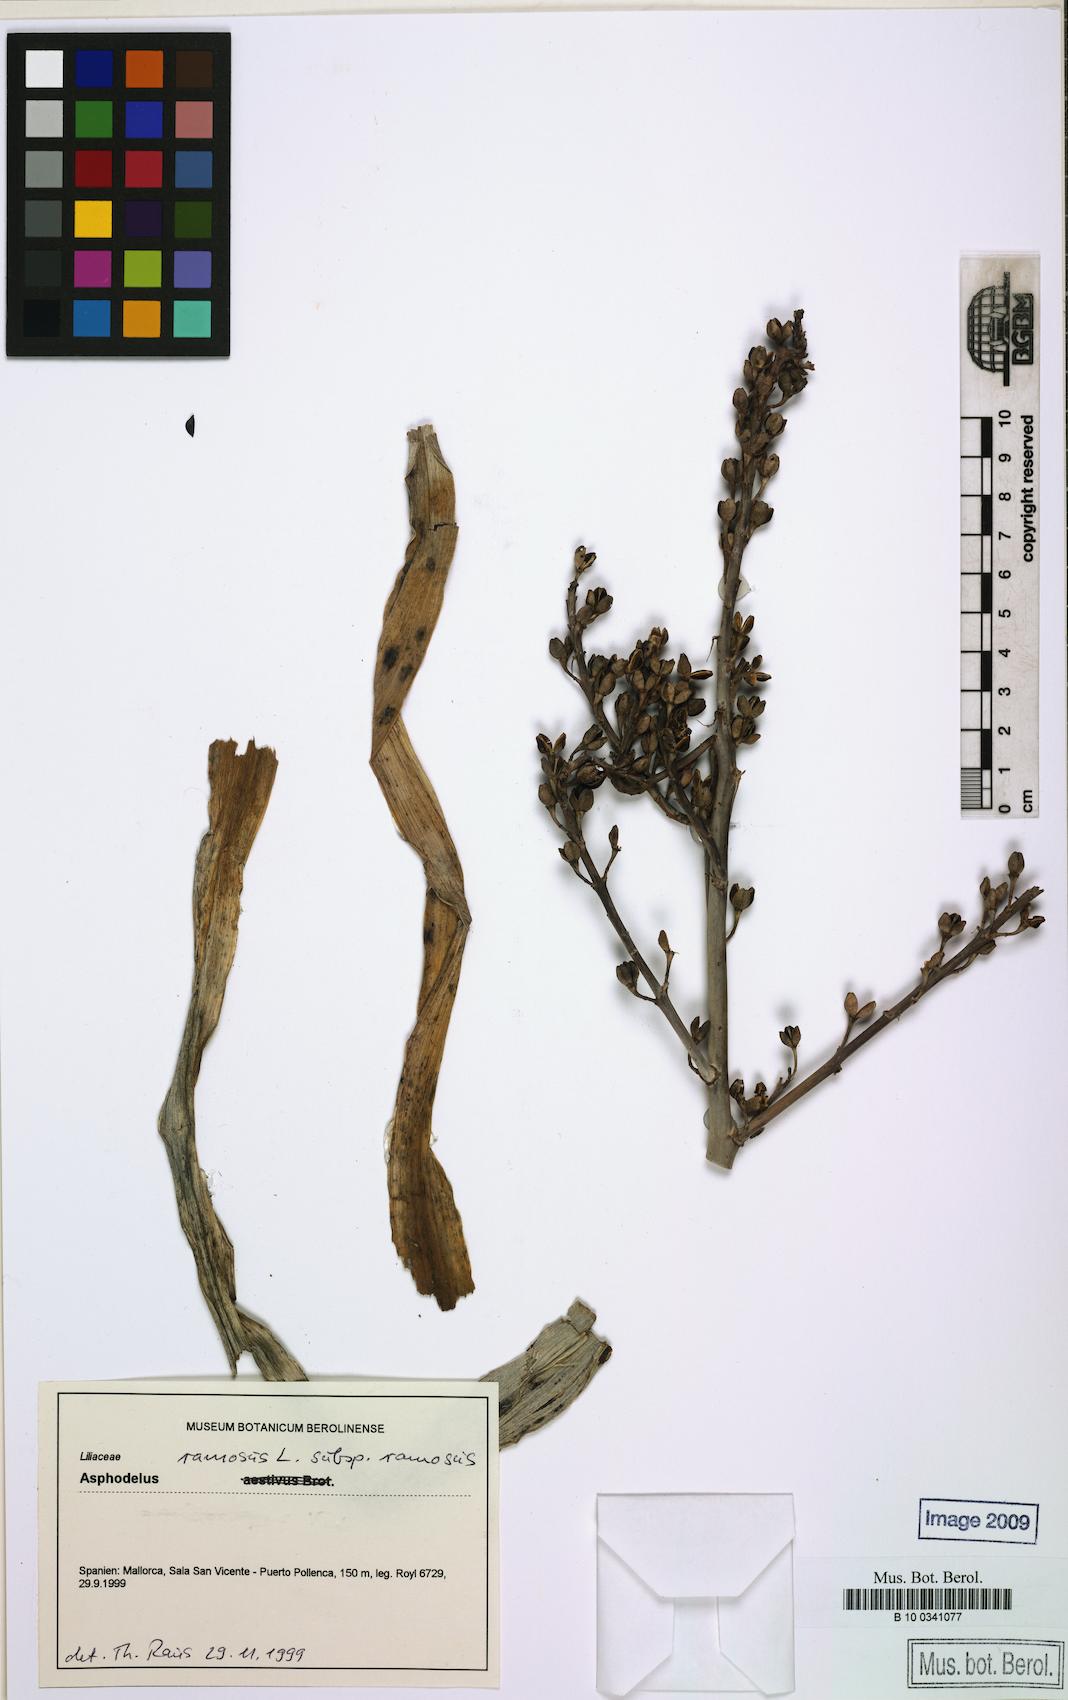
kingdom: Plantae
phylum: Tracheophyta
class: Liliopsida
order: Asparagales
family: Asphodelaceae
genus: Asphodelus
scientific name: Asphodelus ramosus
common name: Silverrod
